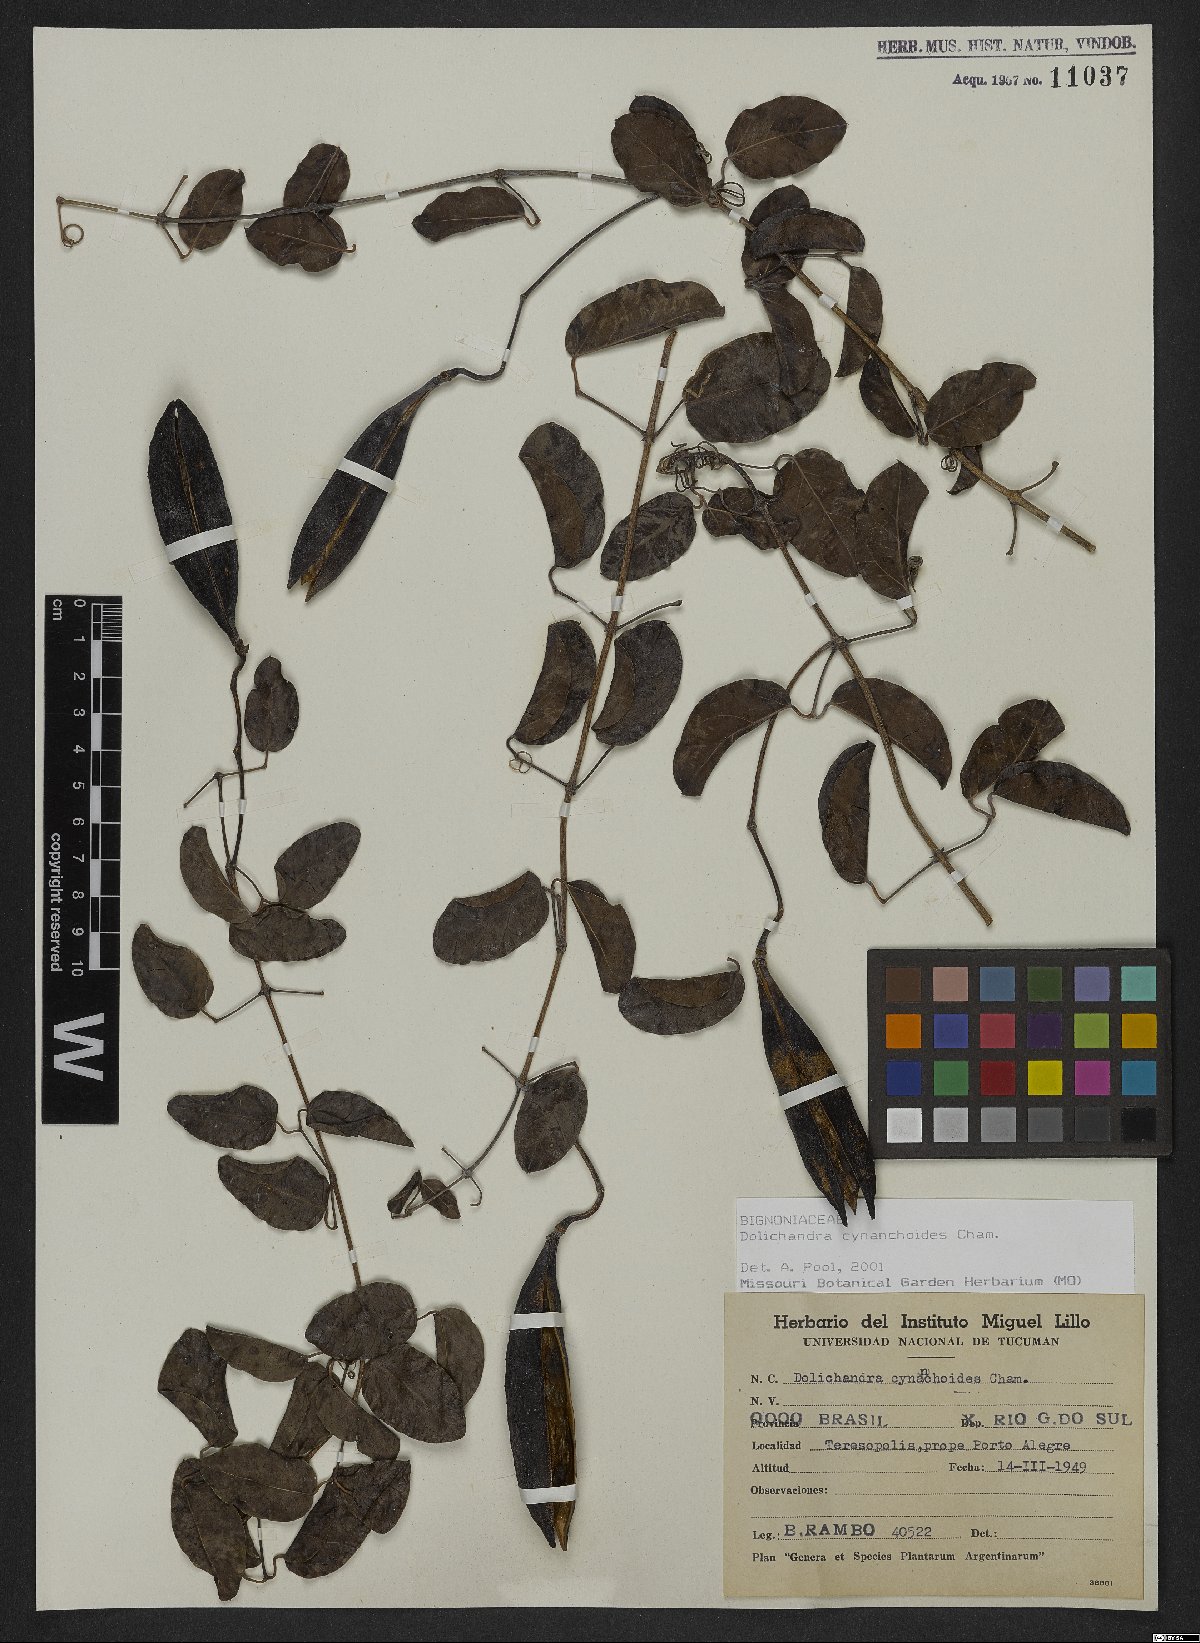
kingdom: Plantae
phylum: Tracheophyta
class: Magnoliopsida
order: Lamiales
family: Bignoniaceae
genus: Dolichandra
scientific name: Dolichandra cynanchoides
